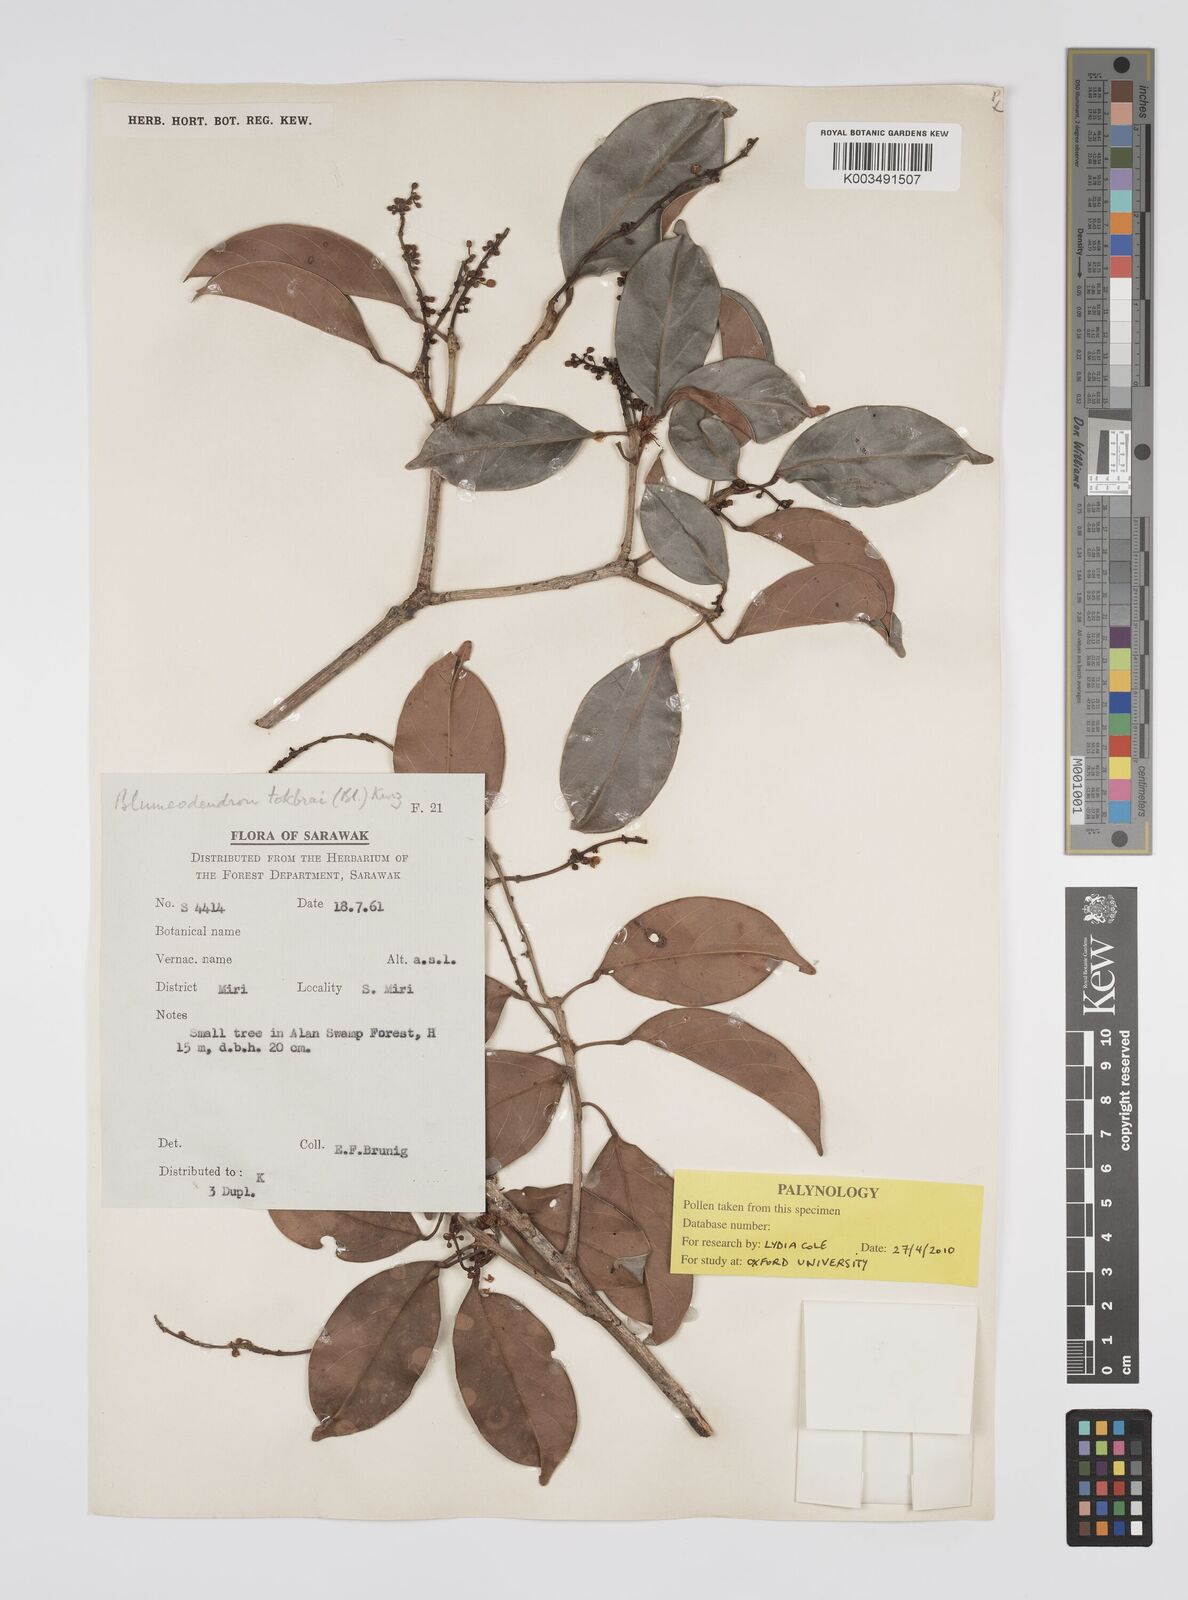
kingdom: Plantae
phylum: Tracheophyta
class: Magnoliopsida
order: Malpighiales
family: Euphorbiaceae
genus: Blumeodendron
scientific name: Blumeodendron tokbrai
